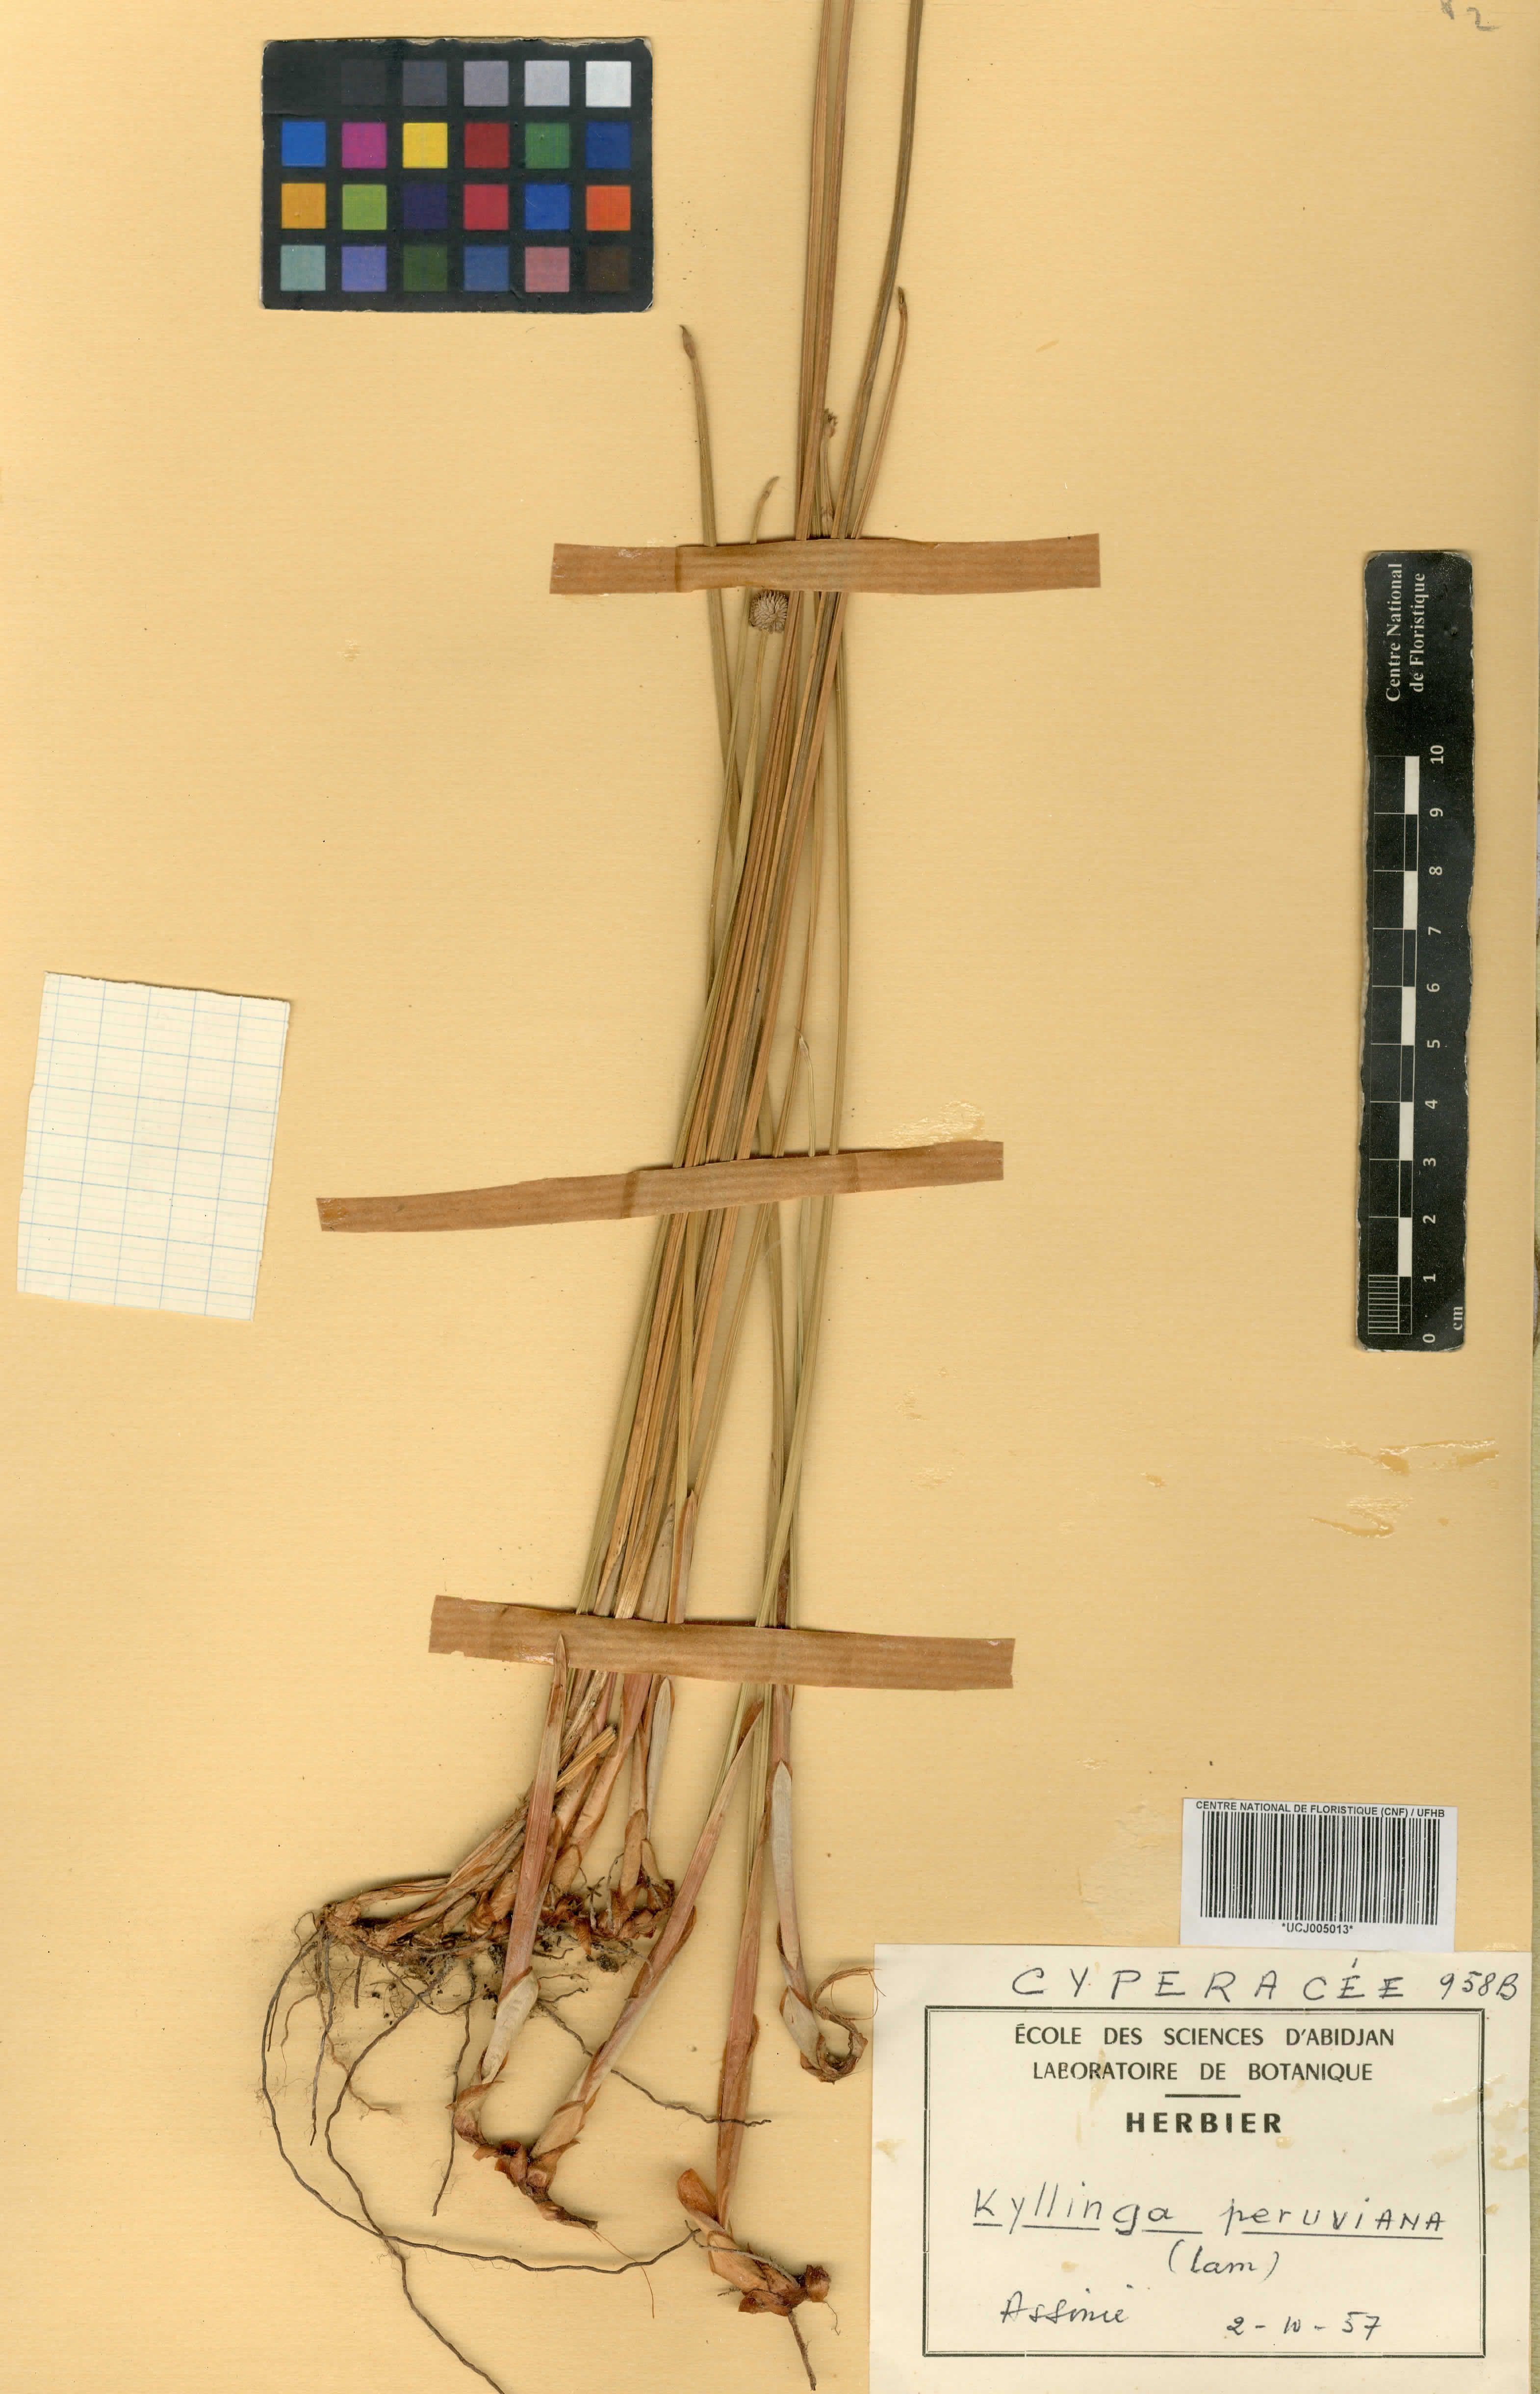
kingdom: Plantae
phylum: Tracheophyta
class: Liliopsida
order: Poales
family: Cyperaceae
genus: Cyperus
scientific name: Cyperus obtusatus
